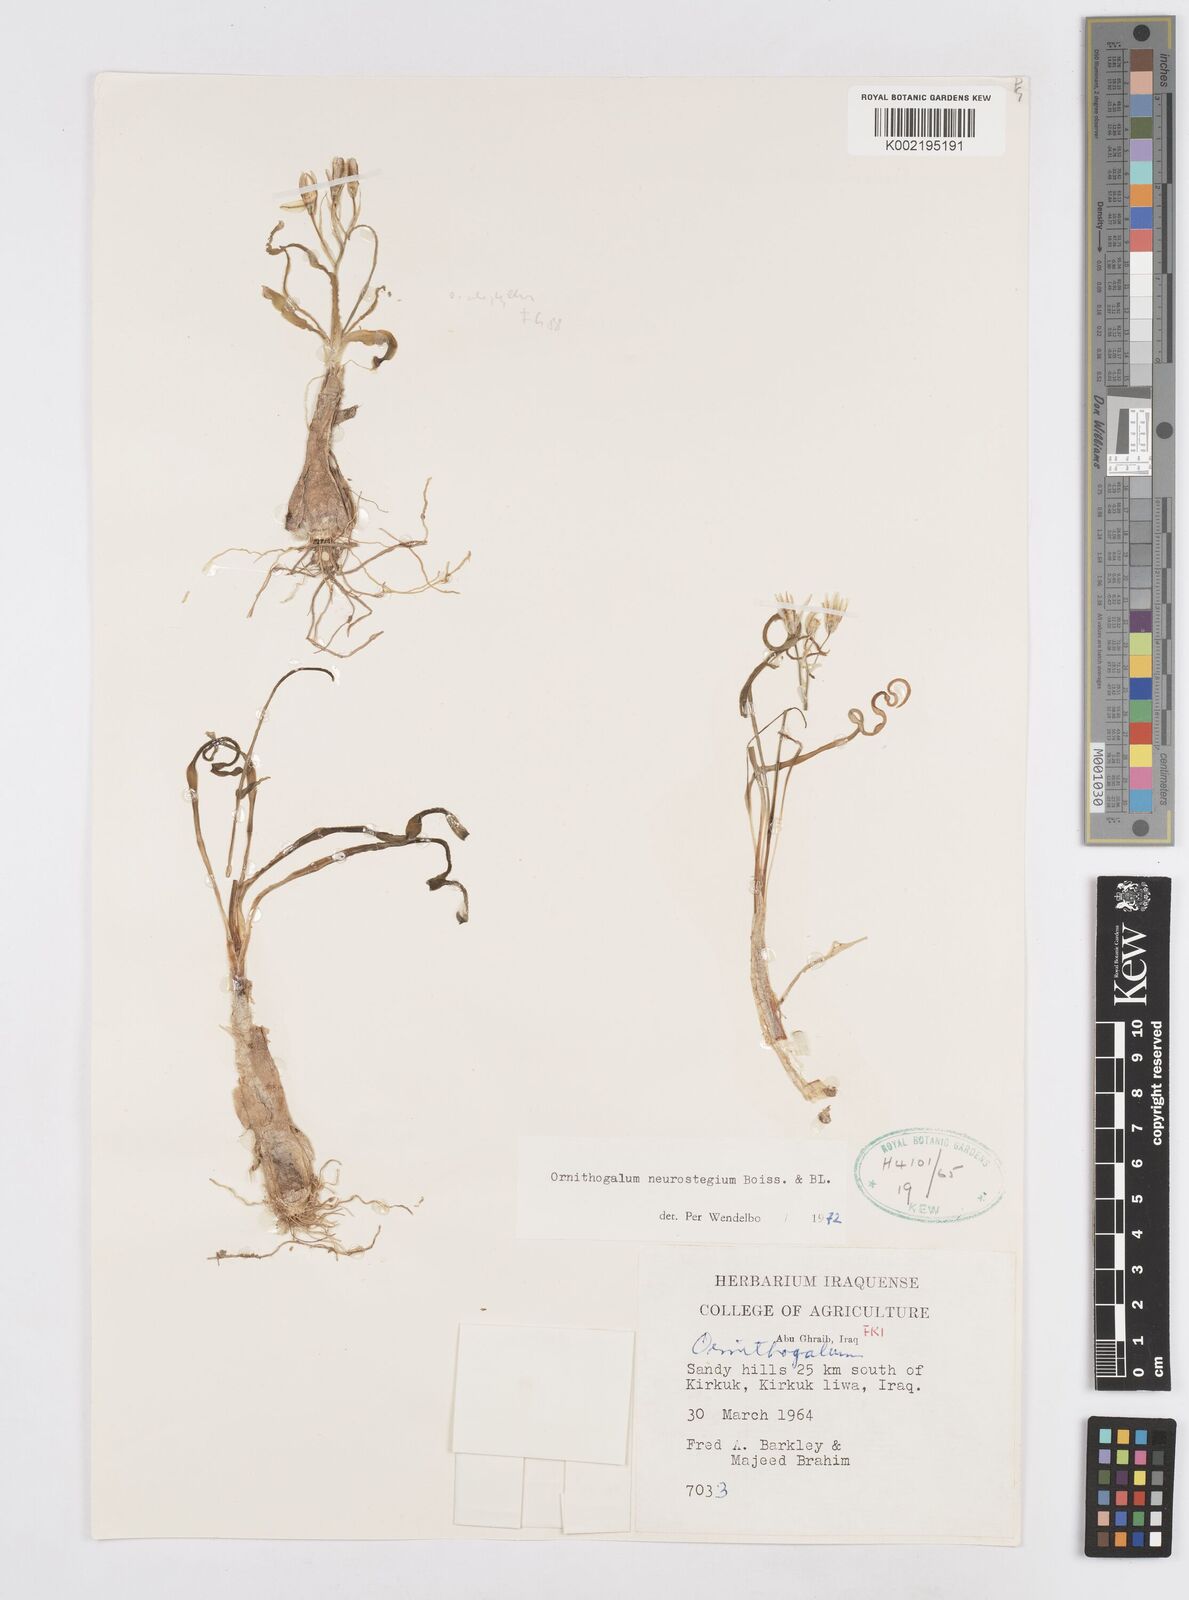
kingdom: Plantae
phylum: Tracheophyta
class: Liliopsida
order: Asparagales
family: Asparagaceae
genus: Ornithogalum
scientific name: Ornithogalum neurostegium
